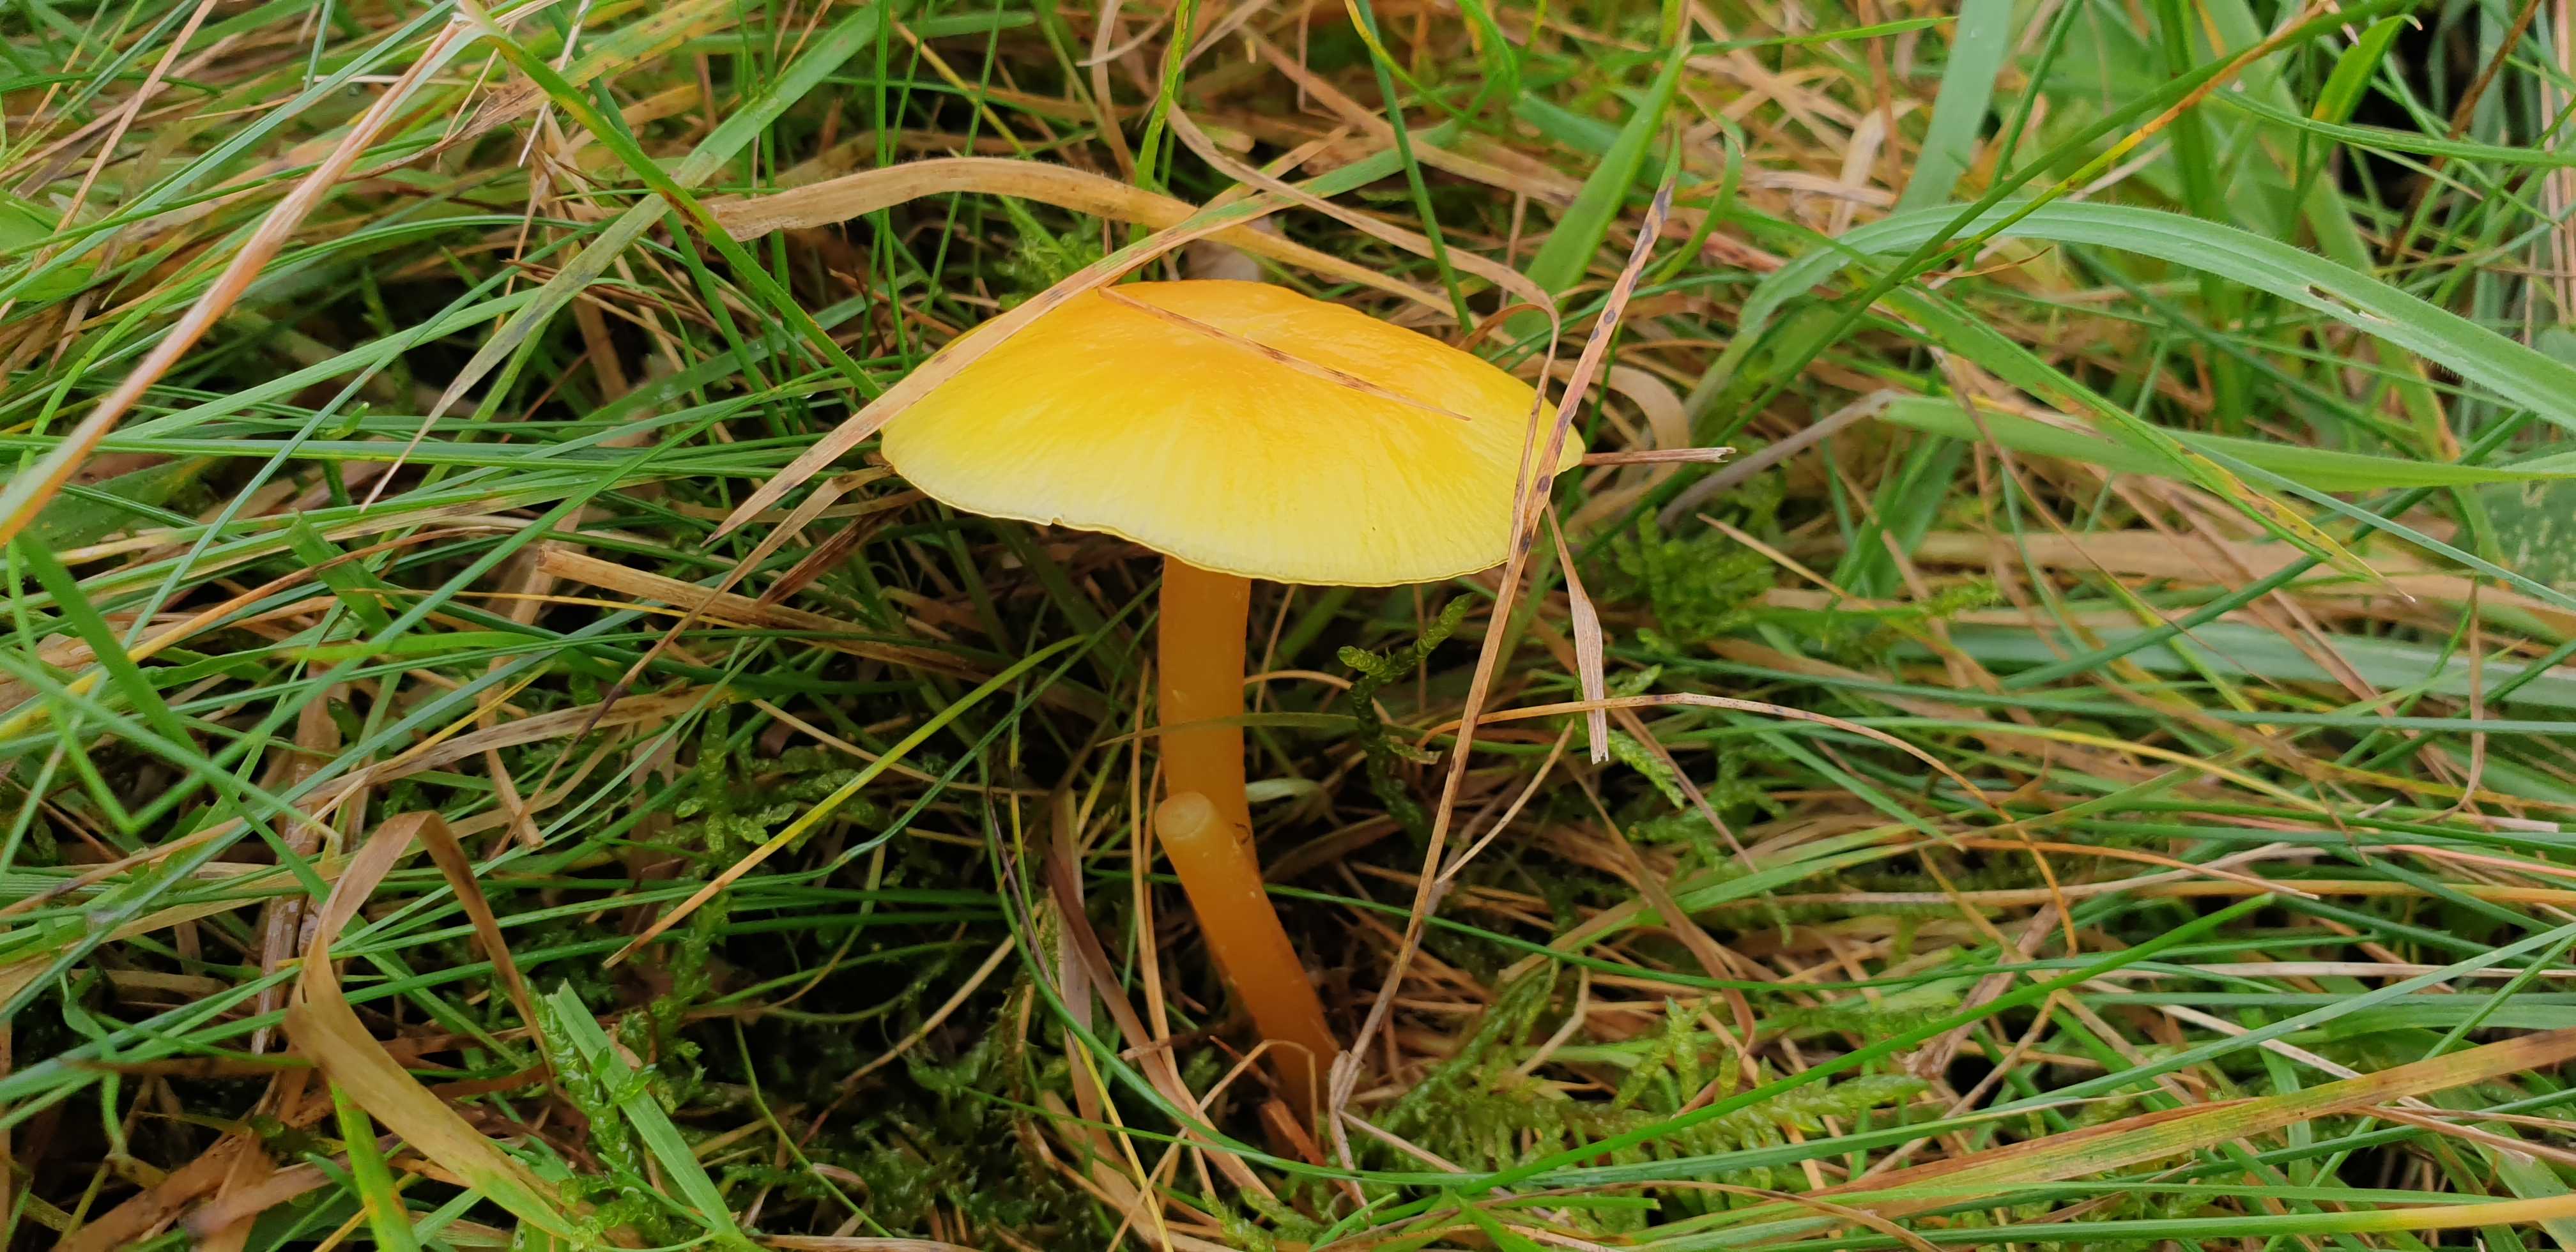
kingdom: Fungi
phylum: Basidiomycota
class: Agaricomycetes
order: Agaricales
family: Hygrophoraceae
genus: Hygrocybe
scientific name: Hygrocybe chlorophana
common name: gul vokshat
